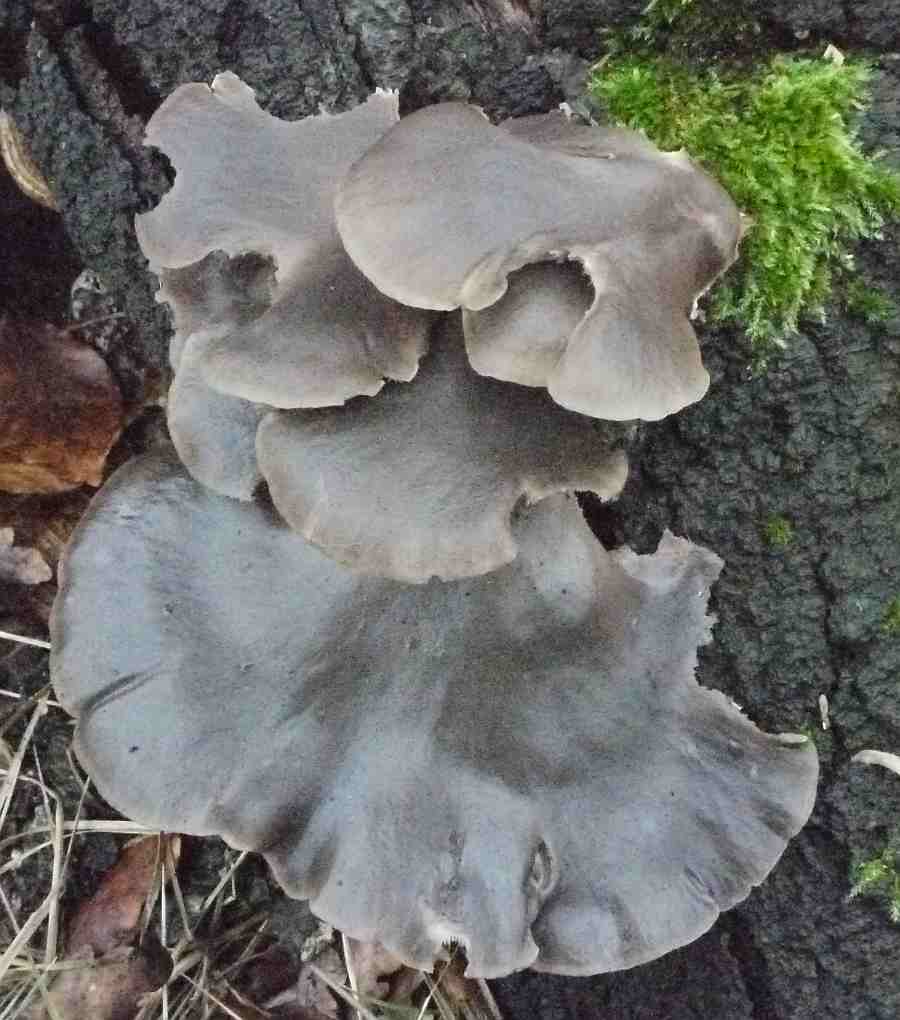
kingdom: Fungi
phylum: Basidiomycota
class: Agaricomycetes
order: Agaricales
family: Pleurotaceae
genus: Pleurotus
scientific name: Pleurotus ostreatus
